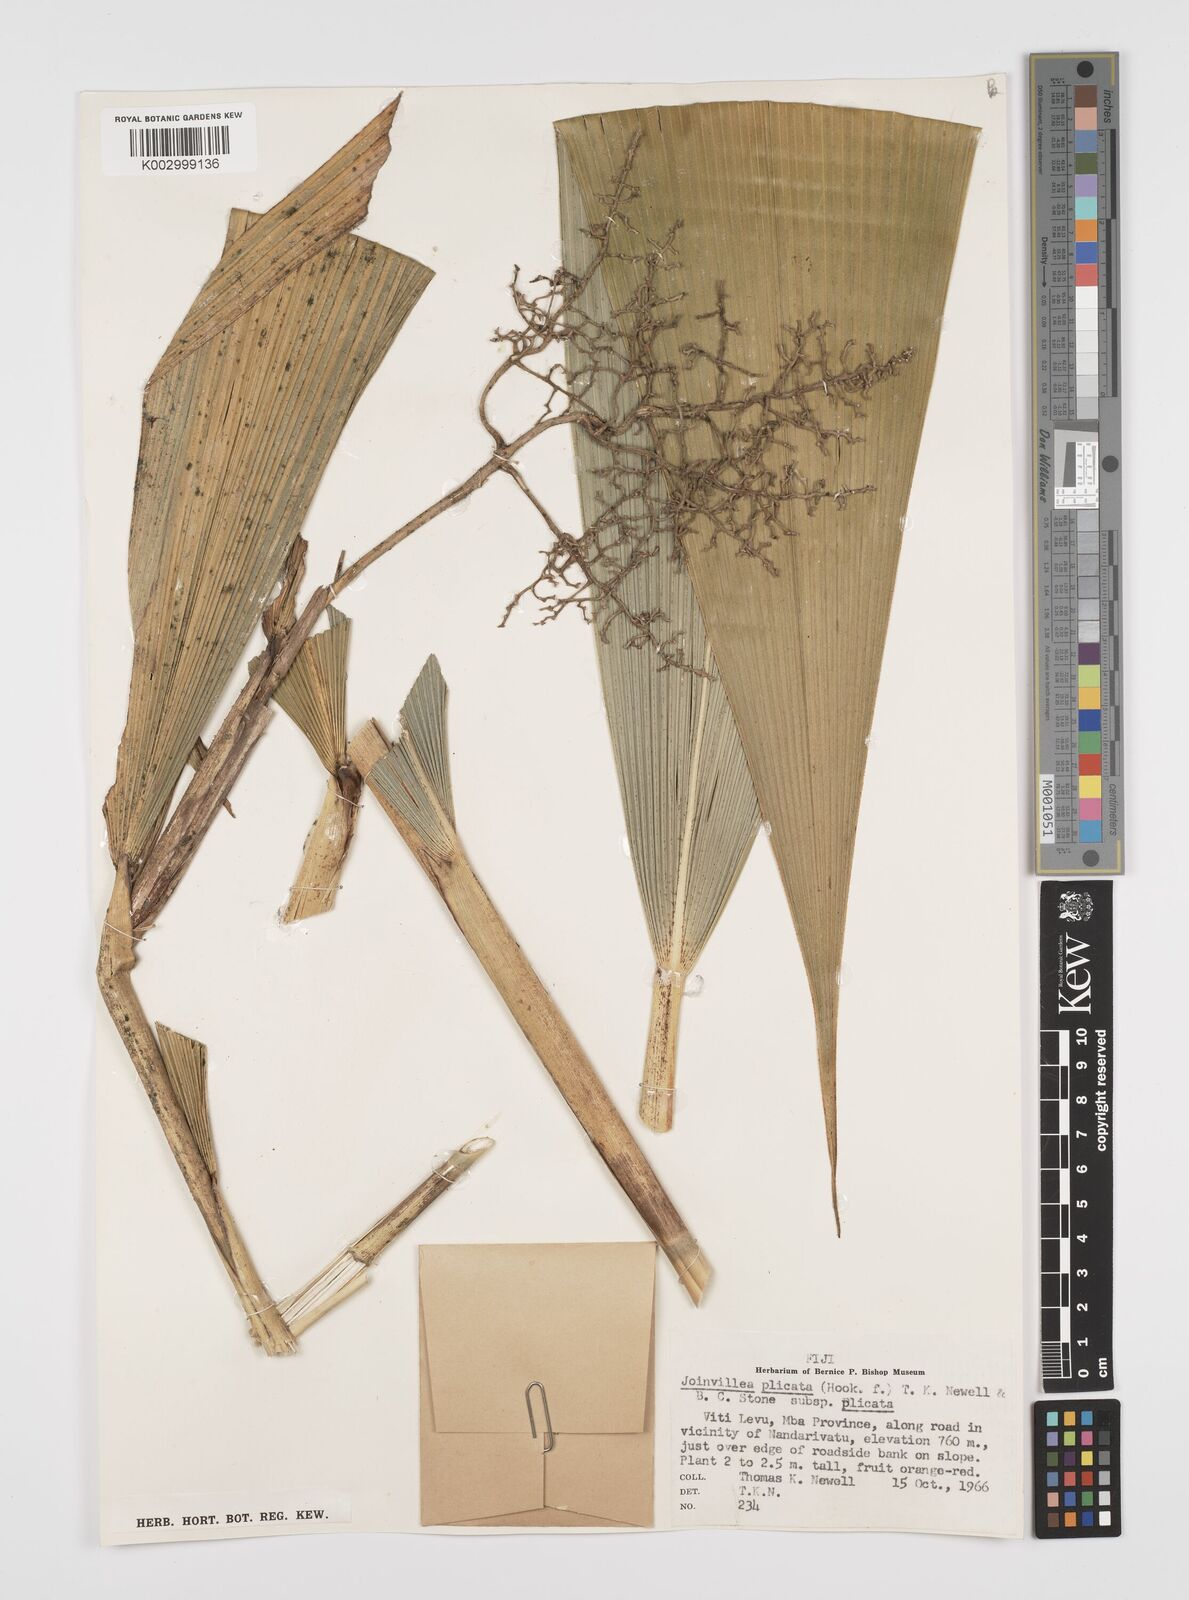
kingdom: Plantae
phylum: Tracheophyta
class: Liliopsida
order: Poales
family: Joinvilleaceae
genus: Joinvillea
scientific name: Joinvillea plicata
